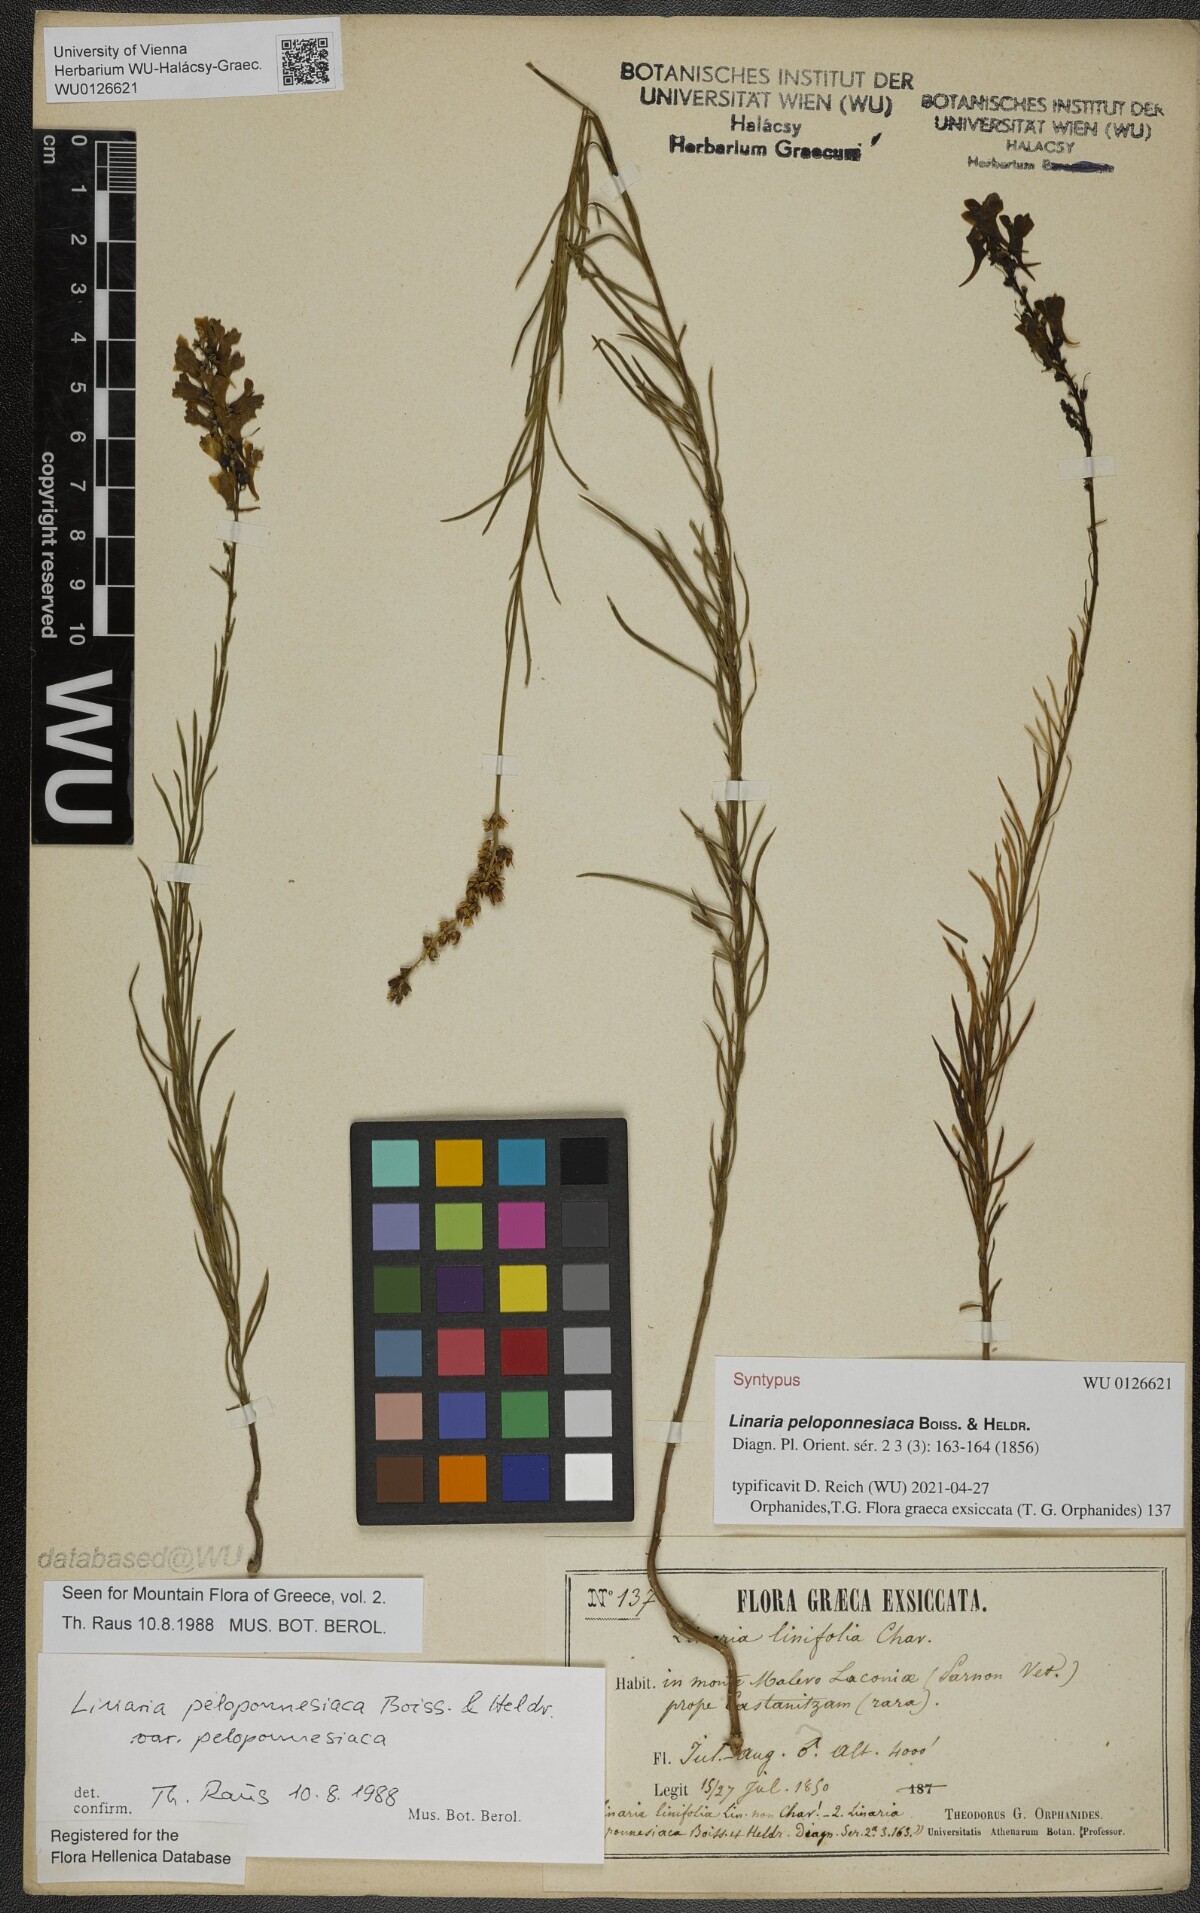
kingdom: Plantae
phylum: Tracheophyta
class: Magnoliopsida
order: Lamiales
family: Plantaginaceae
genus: Linaria
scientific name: Linaria peloponnesiaca
